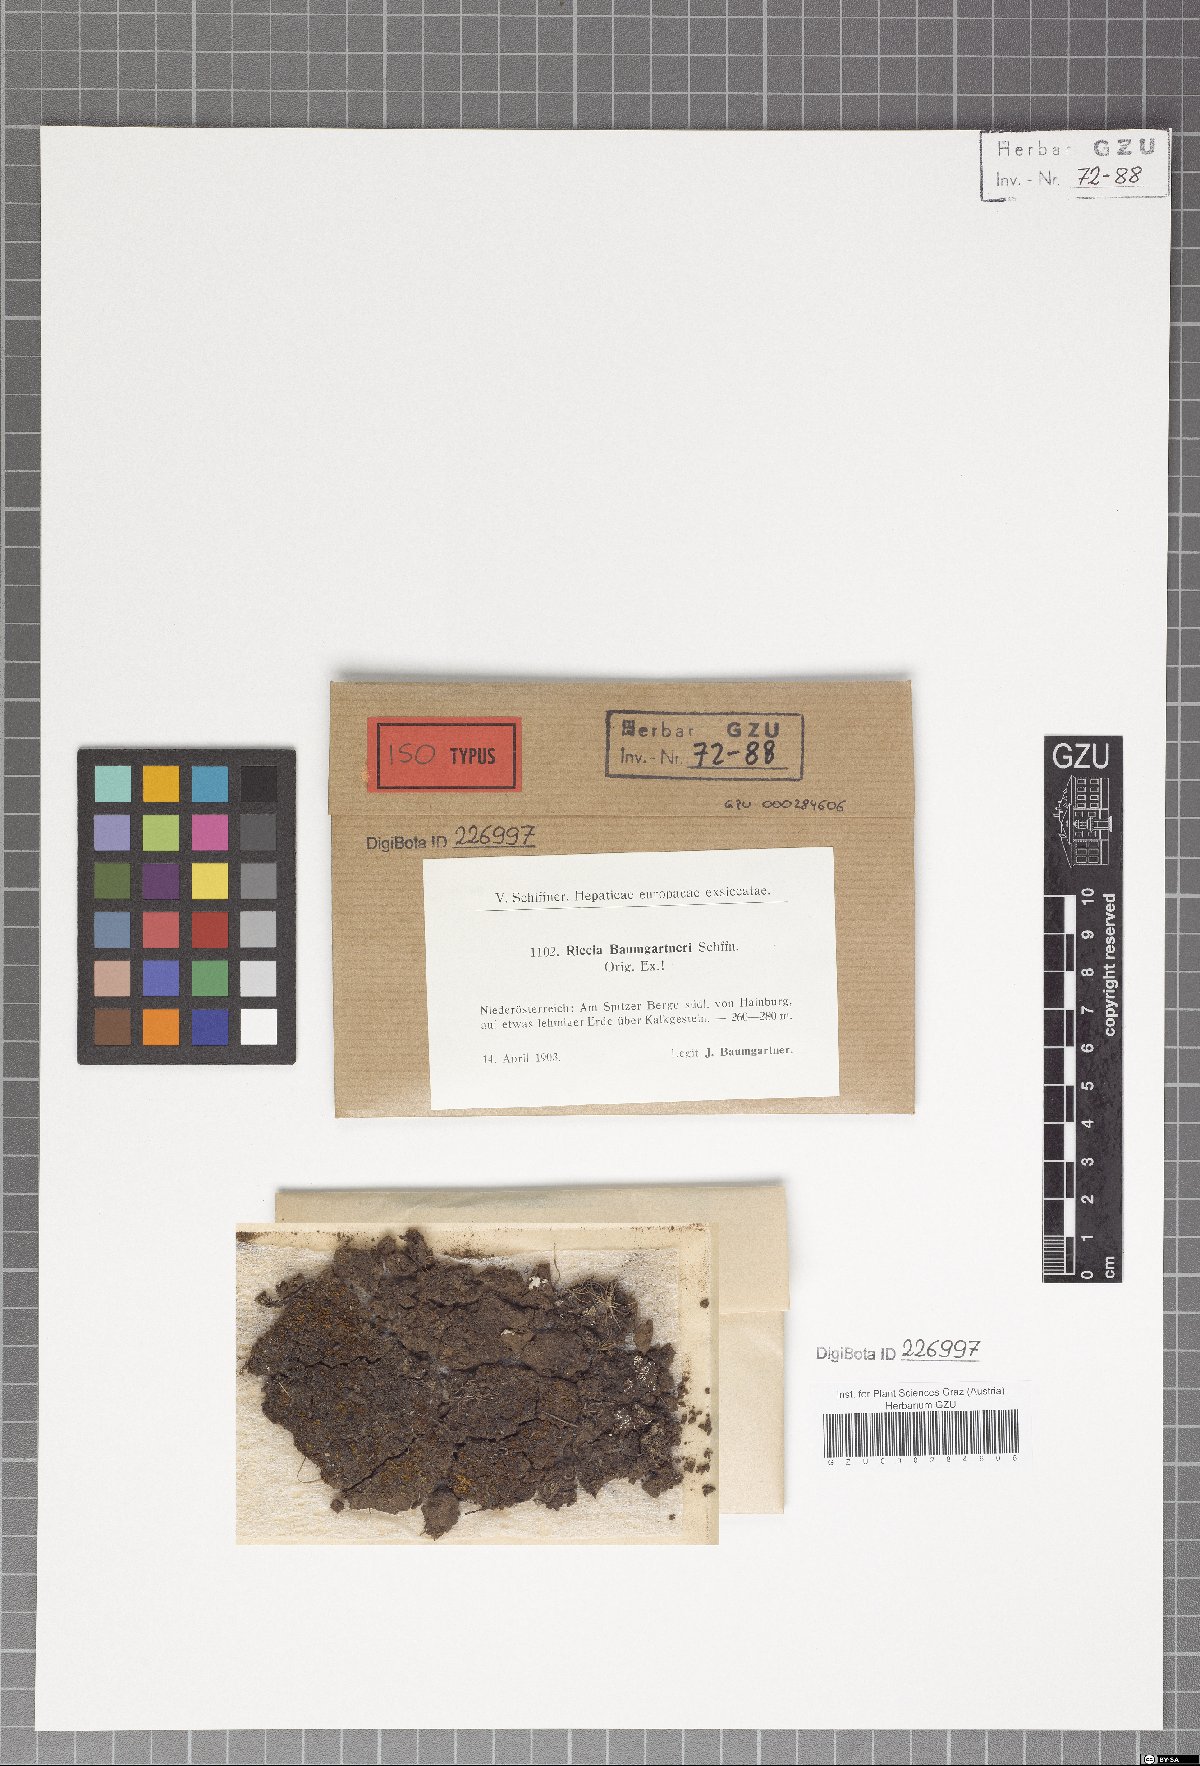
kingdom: Plantae
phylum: Marchantiophyta
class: Marchantiopsida
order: Marchantiales
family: Ricciaceae
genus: Riccia
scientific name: Riccia subbifurca
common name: Least crystalwort
